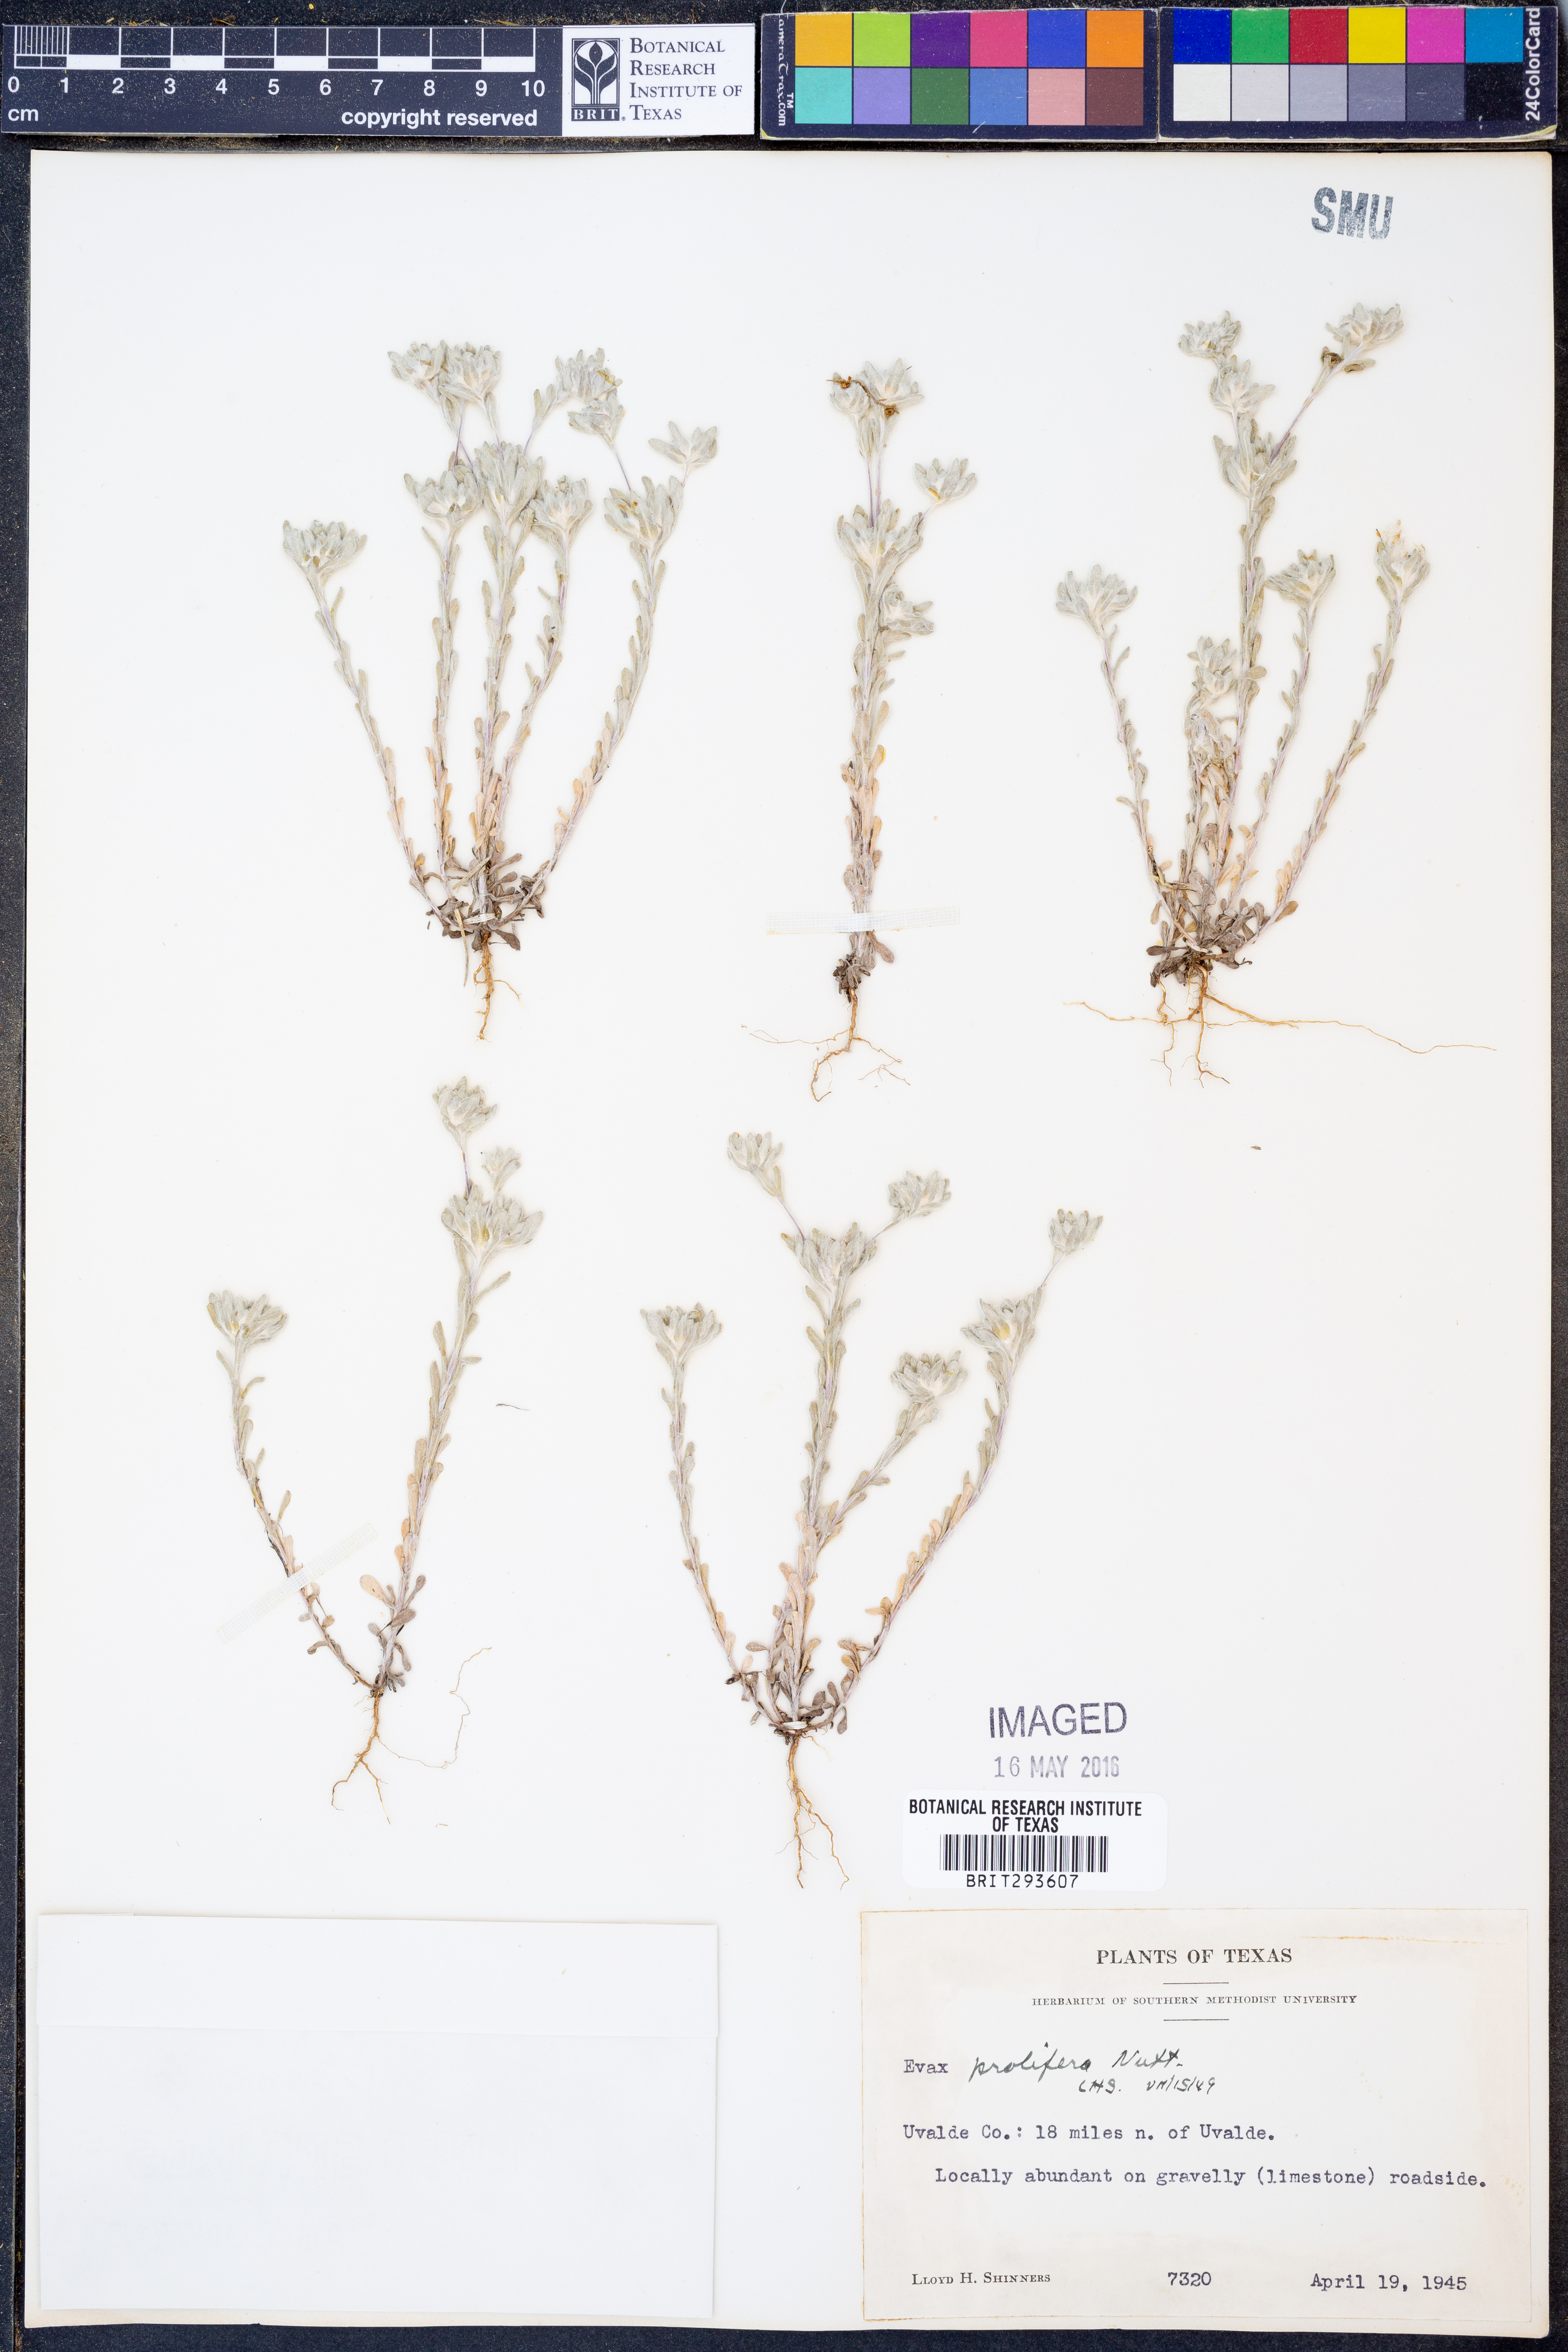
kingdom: Plantae
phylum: Tracheophyta
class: Magnoliopsida
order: Asterales
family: Asteraceae
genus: Diaperia
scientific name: Diaperia prolifera
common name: Big-head rabbit-tobacco
